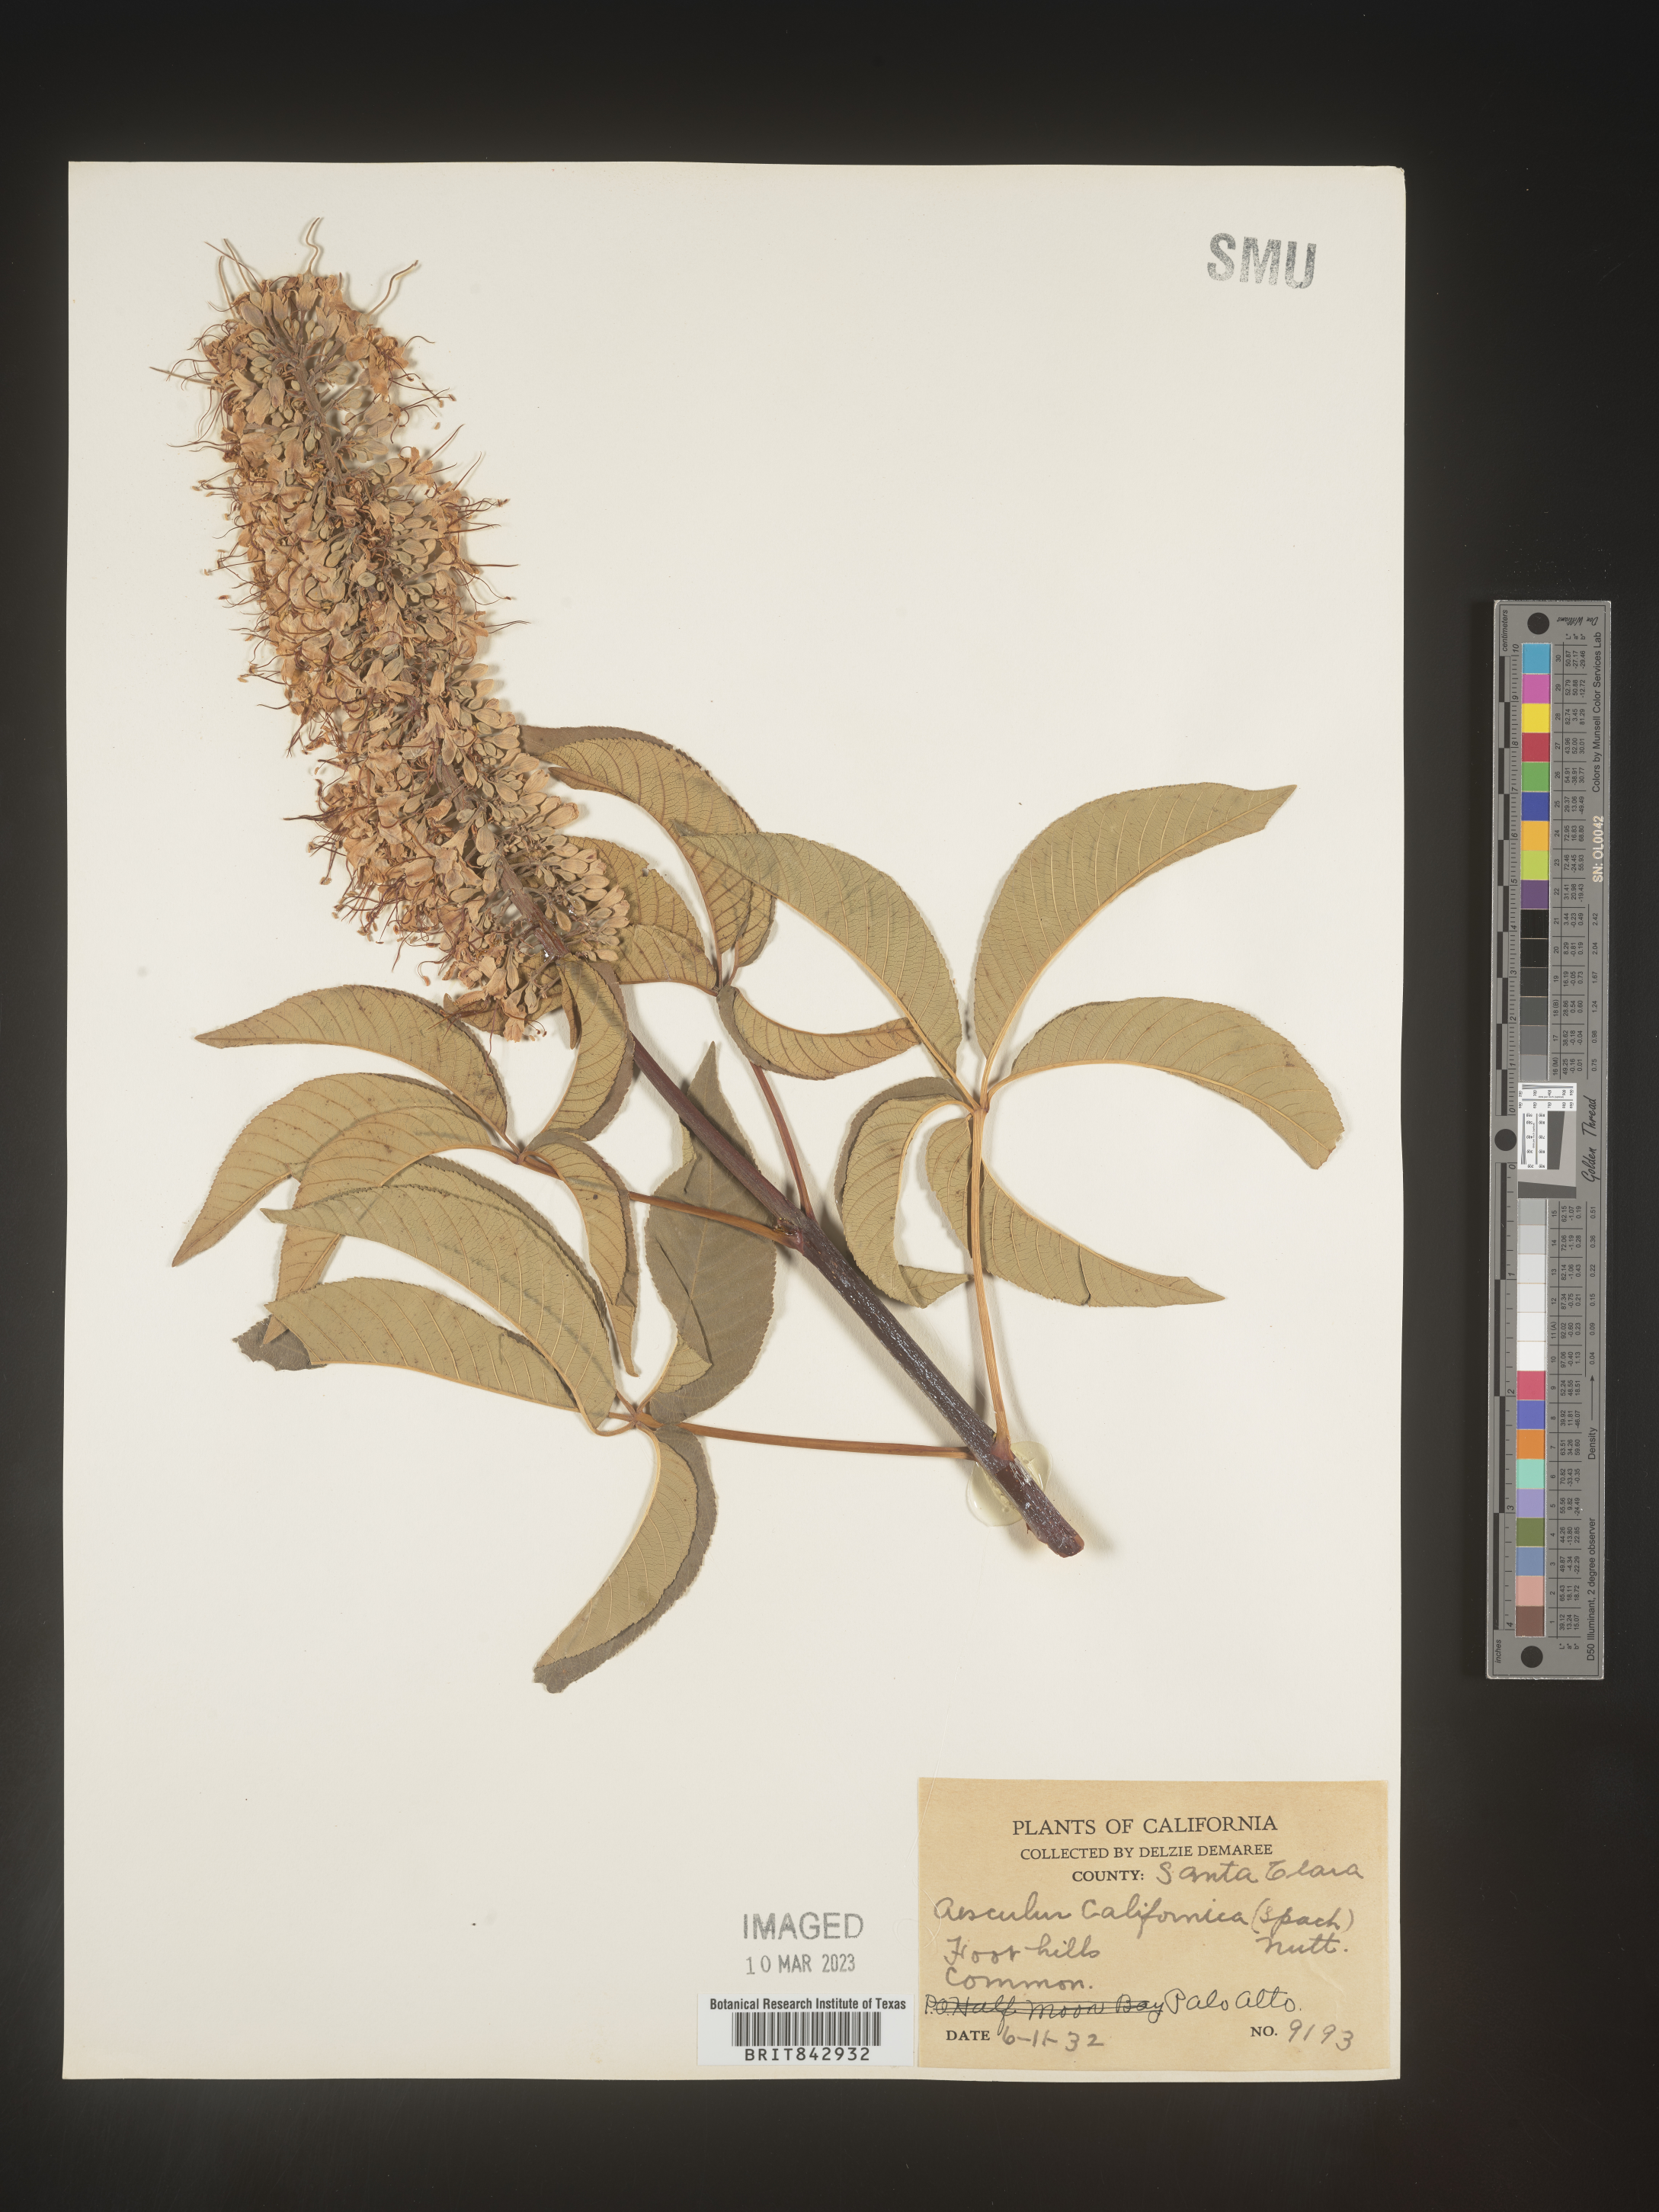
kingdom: Plantae
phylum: Tracheophyta
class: Magnoliopsida
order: Sapindales
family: Sapindaceae
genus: Aesculus
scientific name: Aesculus
